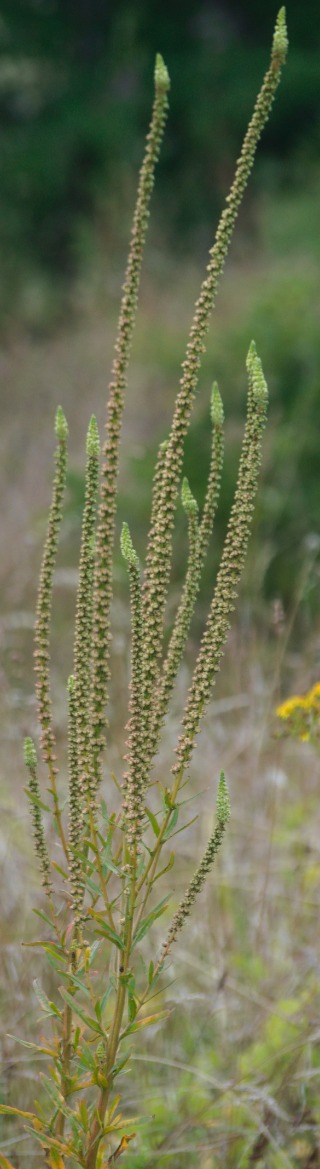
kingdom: Plantae
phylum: Tracheophyta
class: Magnoliopsida
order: Brassicales
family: Resedaceae
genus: Reseda
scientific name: Reseda luteola
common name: Farve-reseda
